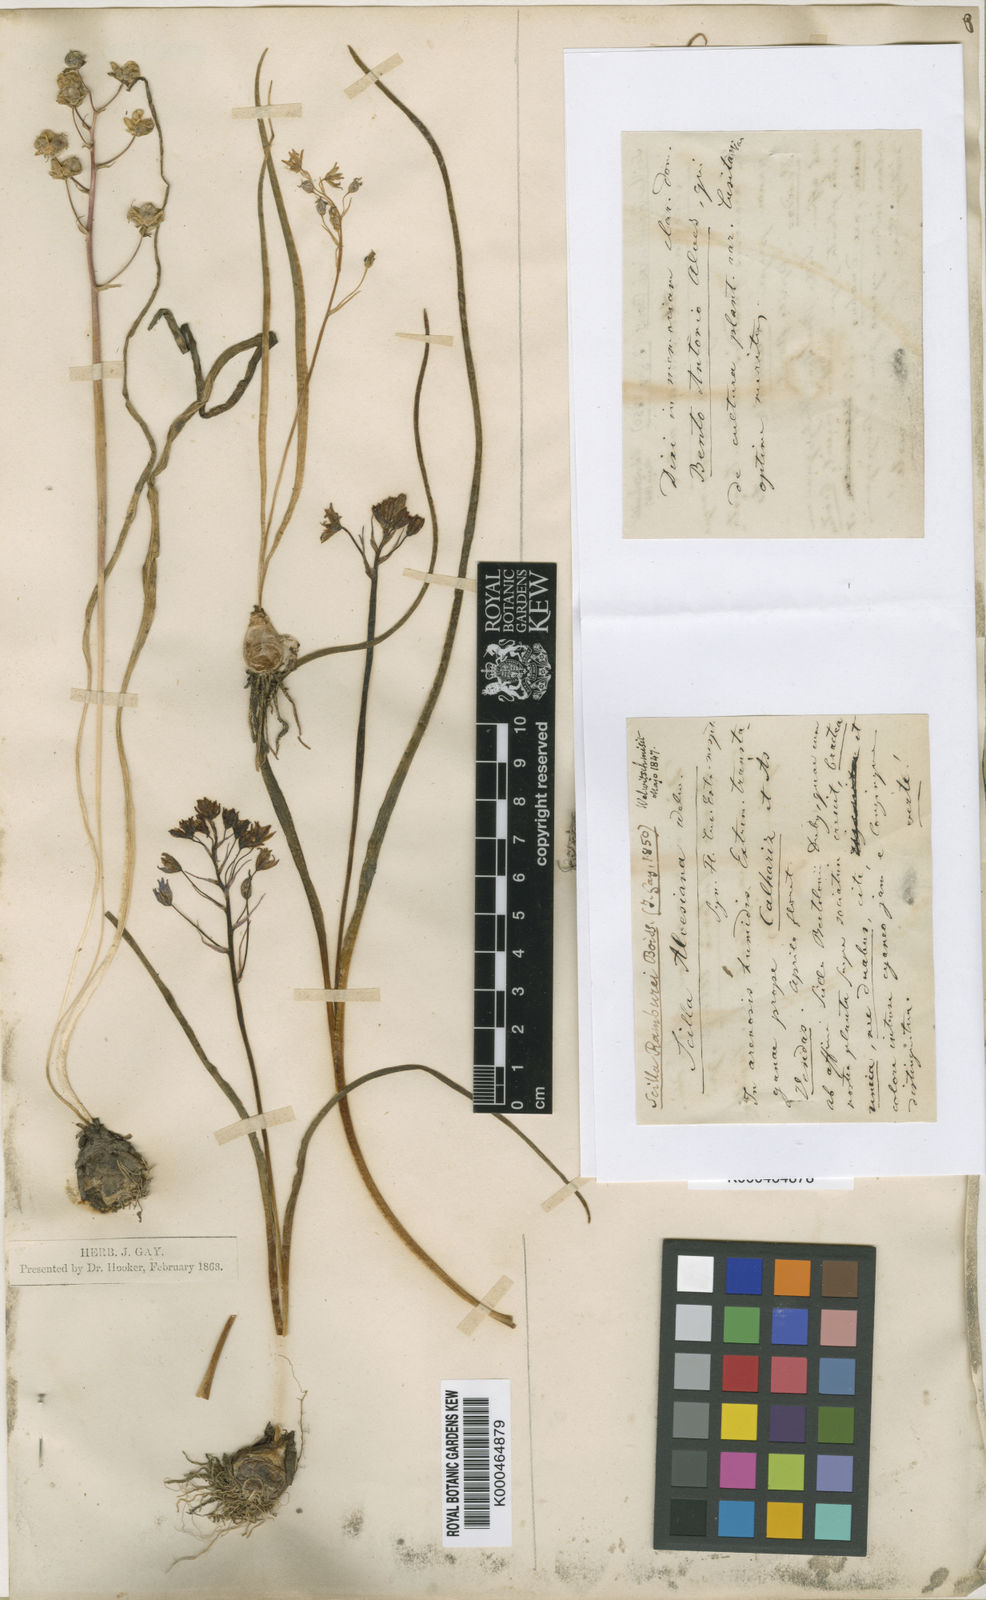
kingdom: Plantae
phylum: Tracheophyta
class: Liliopsida
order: Asparagales
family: Asparagaceae
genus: Scilla
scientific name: Scilla verna
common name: Spring squill
